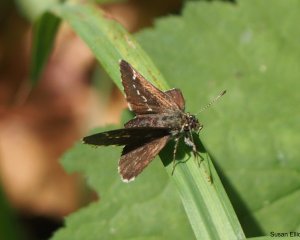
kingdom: Animalia
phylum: Arthropoda
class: Insecta
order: Lepidoptera
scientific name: Lepidoptera
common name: Butterflies
